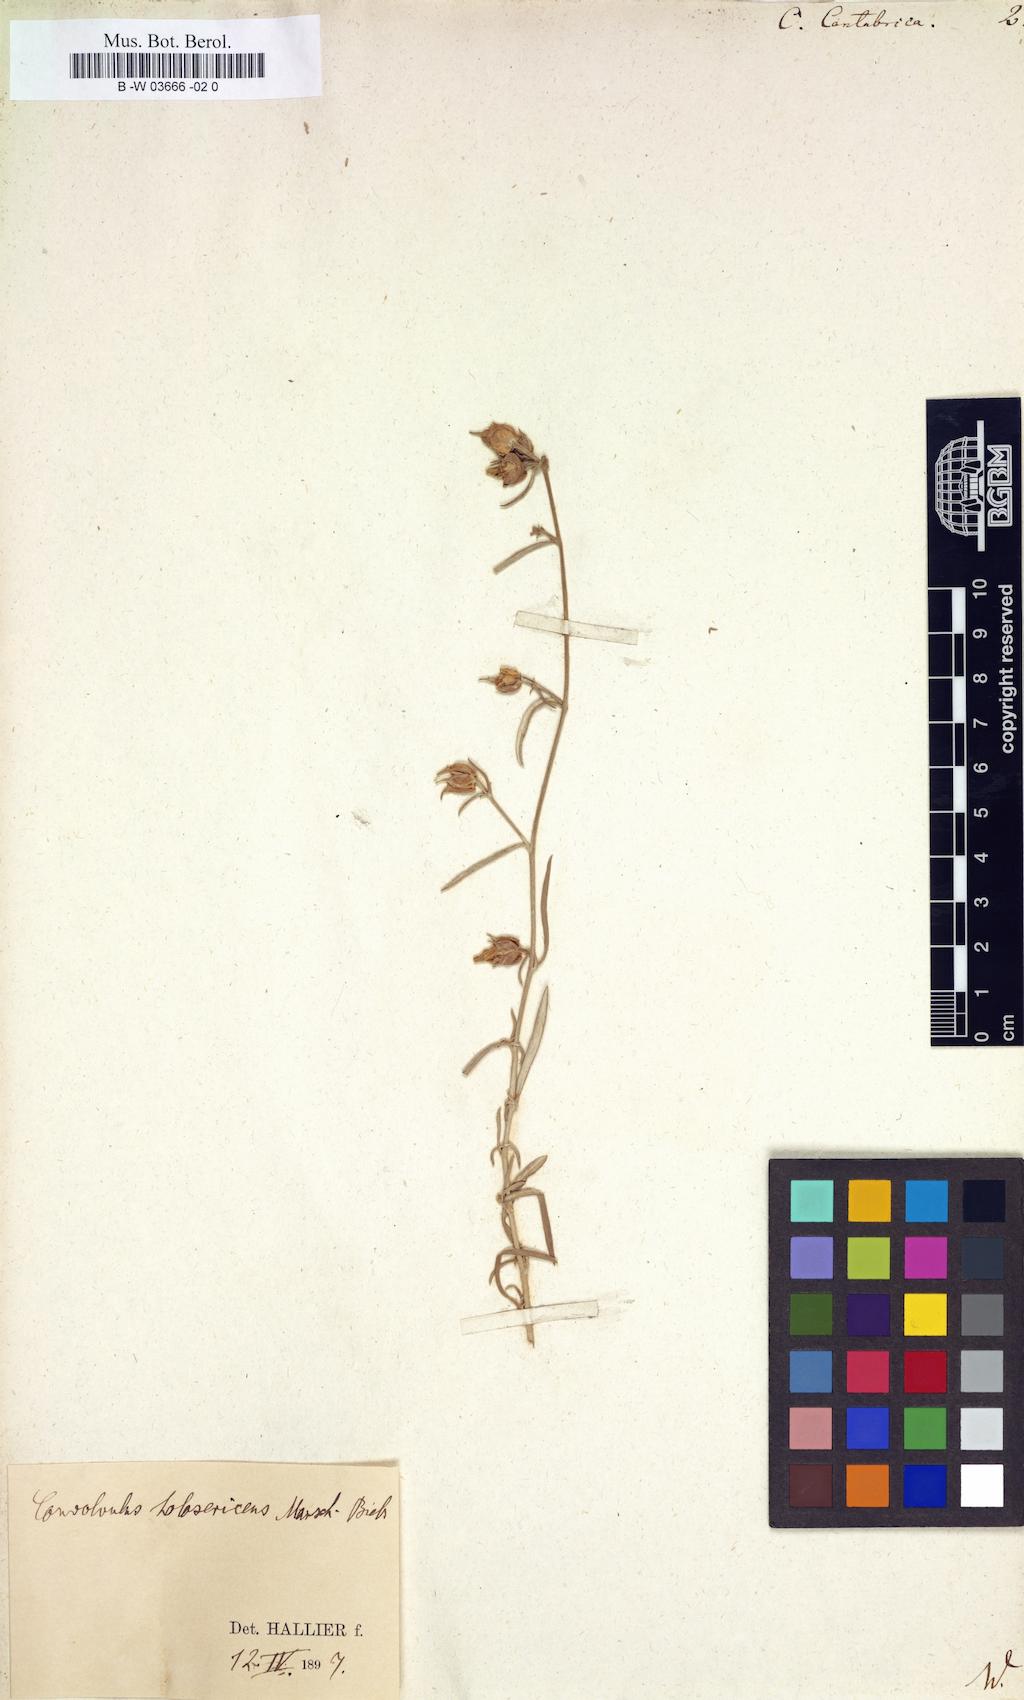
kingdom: Plantae
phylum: Tracheophyta
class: Magnoliopsida
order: Solanales
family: Convolvulaceae
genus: Convolvulus
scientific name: Convolvulus cantabrica
